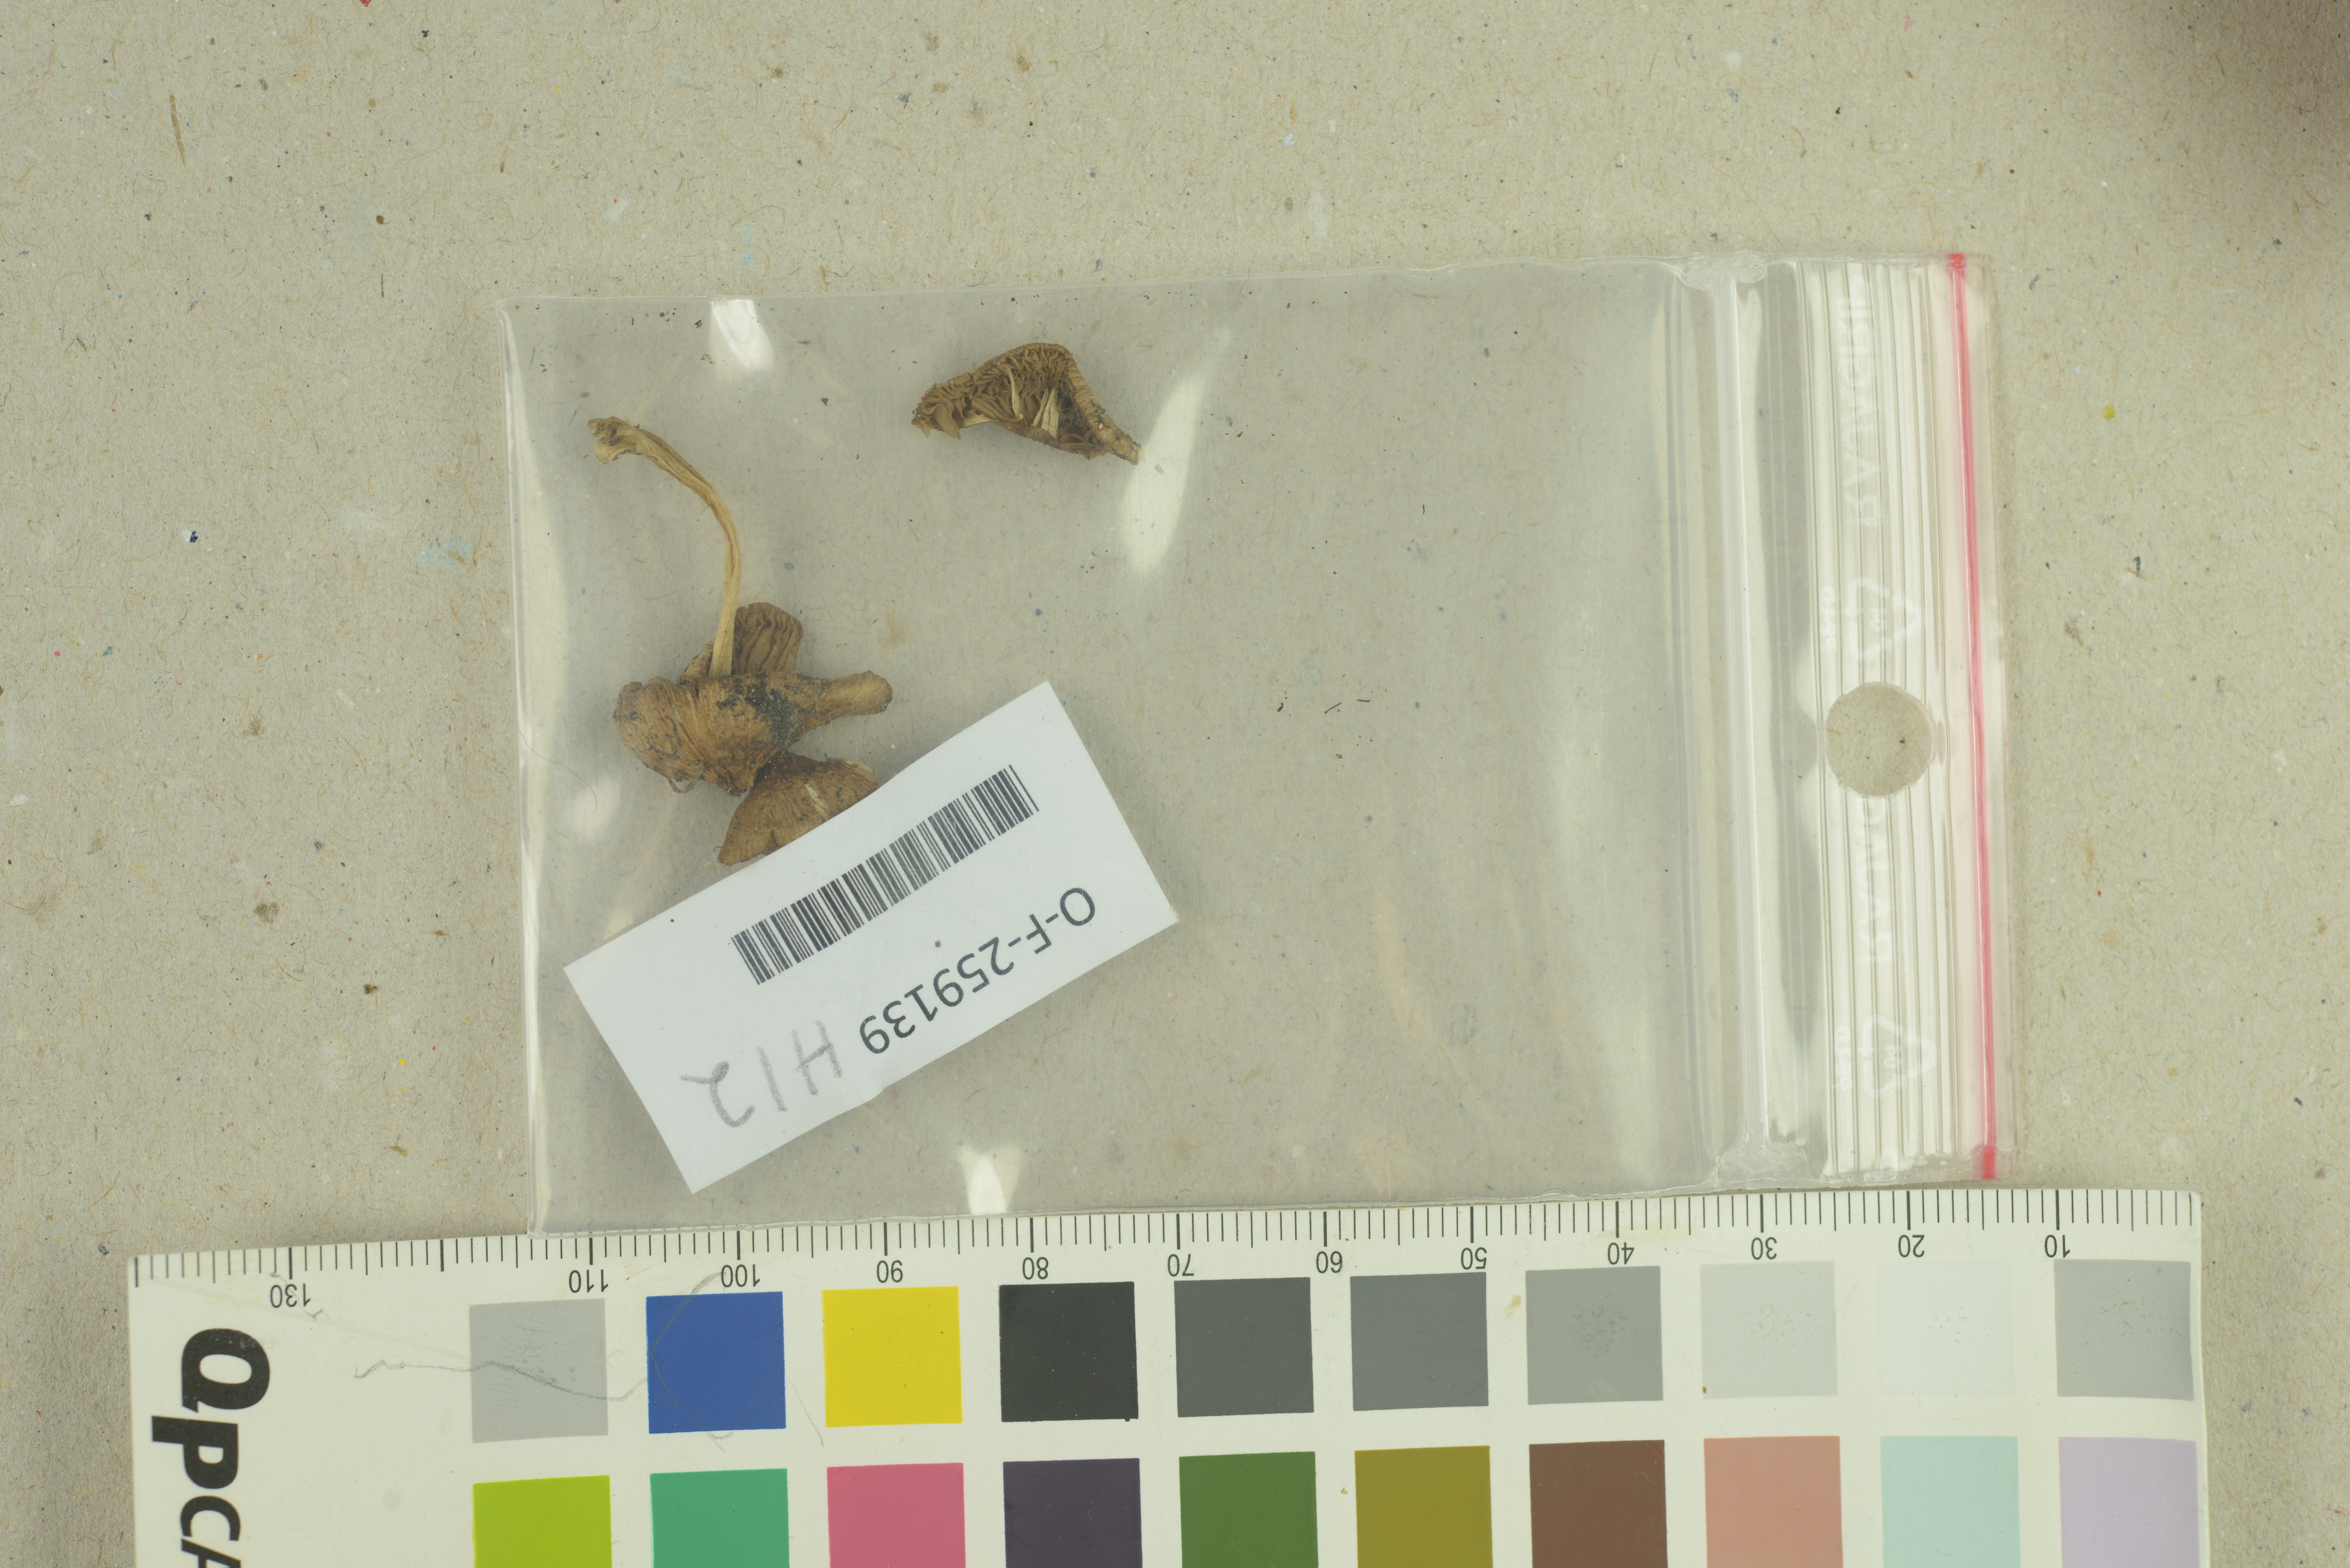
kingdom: Fungi
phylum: Basidiomycota
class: Agaricomycetes
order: Agaricales
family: Inocybaceae
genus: Inocybe
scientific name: Inocybe occulta
